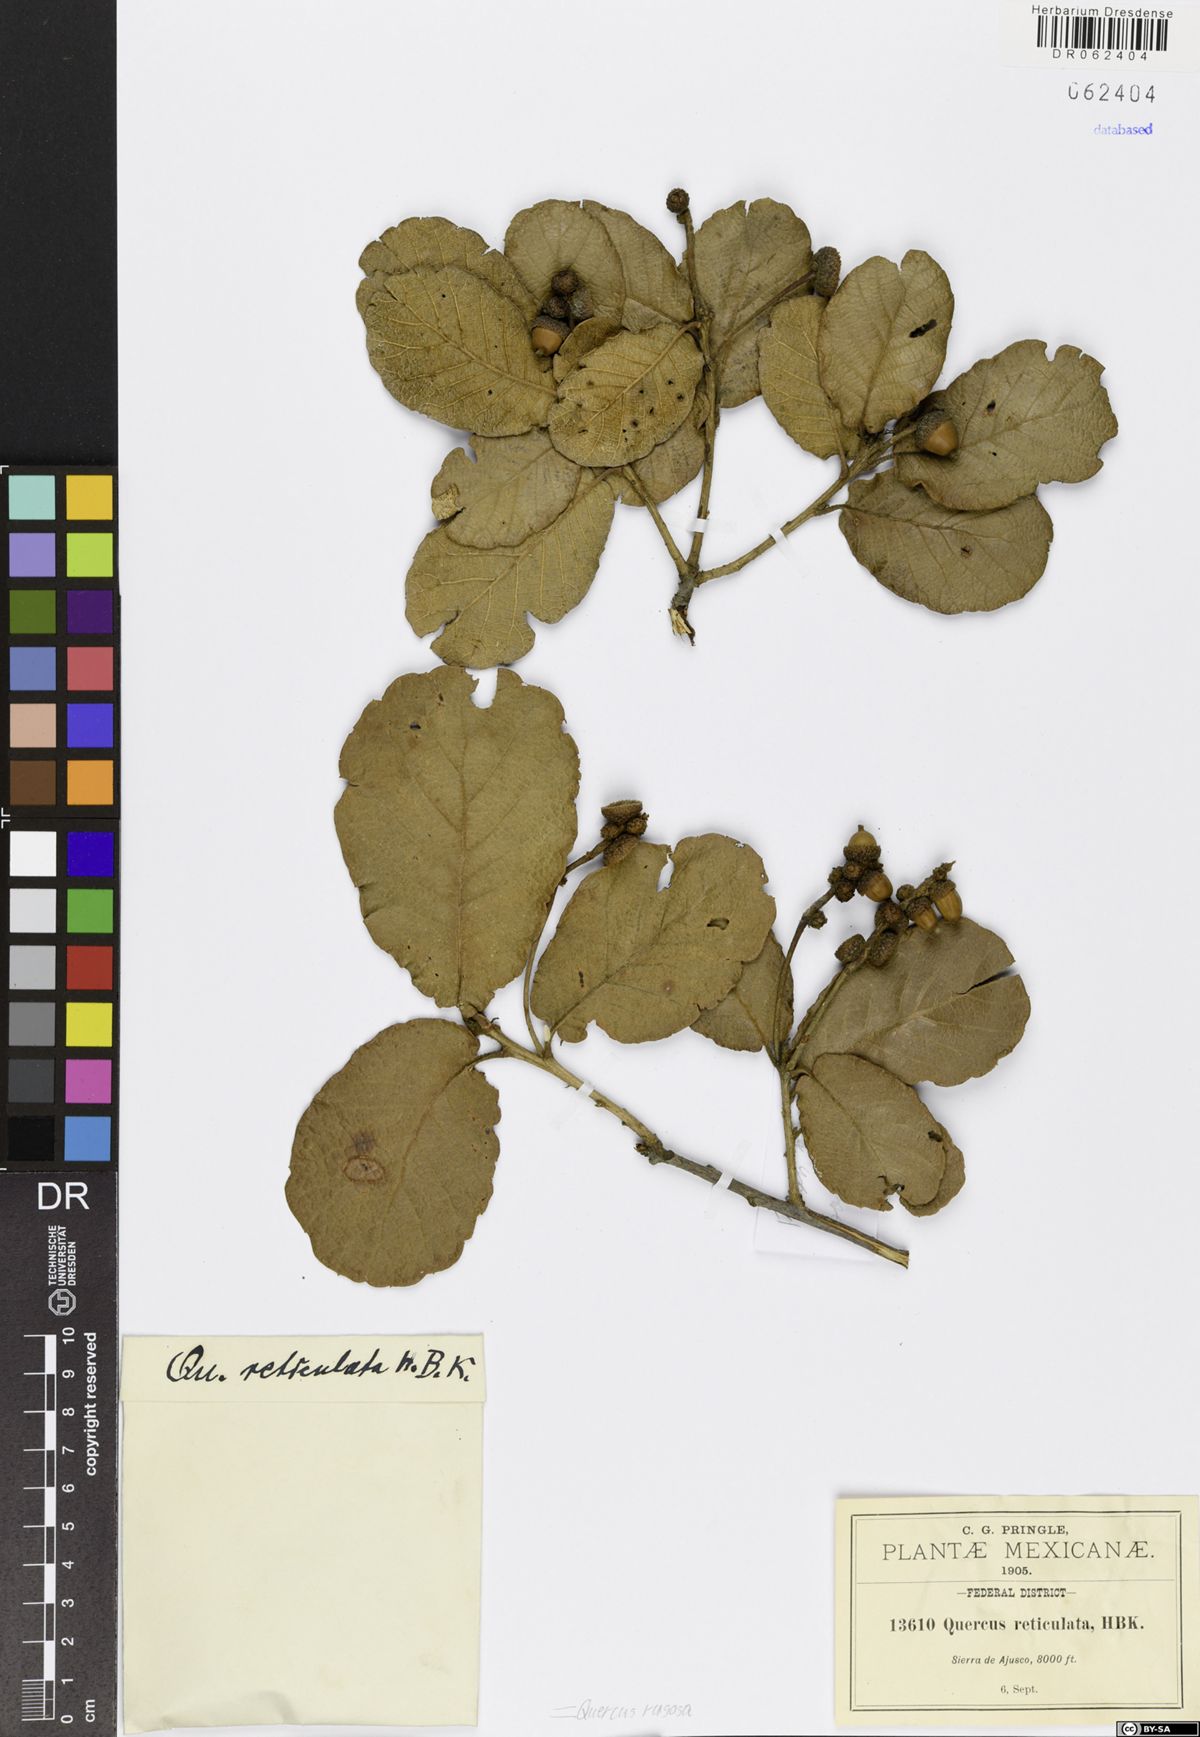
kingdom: Plantae
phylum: Tracheophyta
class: Magnoliopsida
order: Fagales
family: Fagaceae
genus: Quercus
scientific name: Quercus rugosa
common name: Netleaf oak
